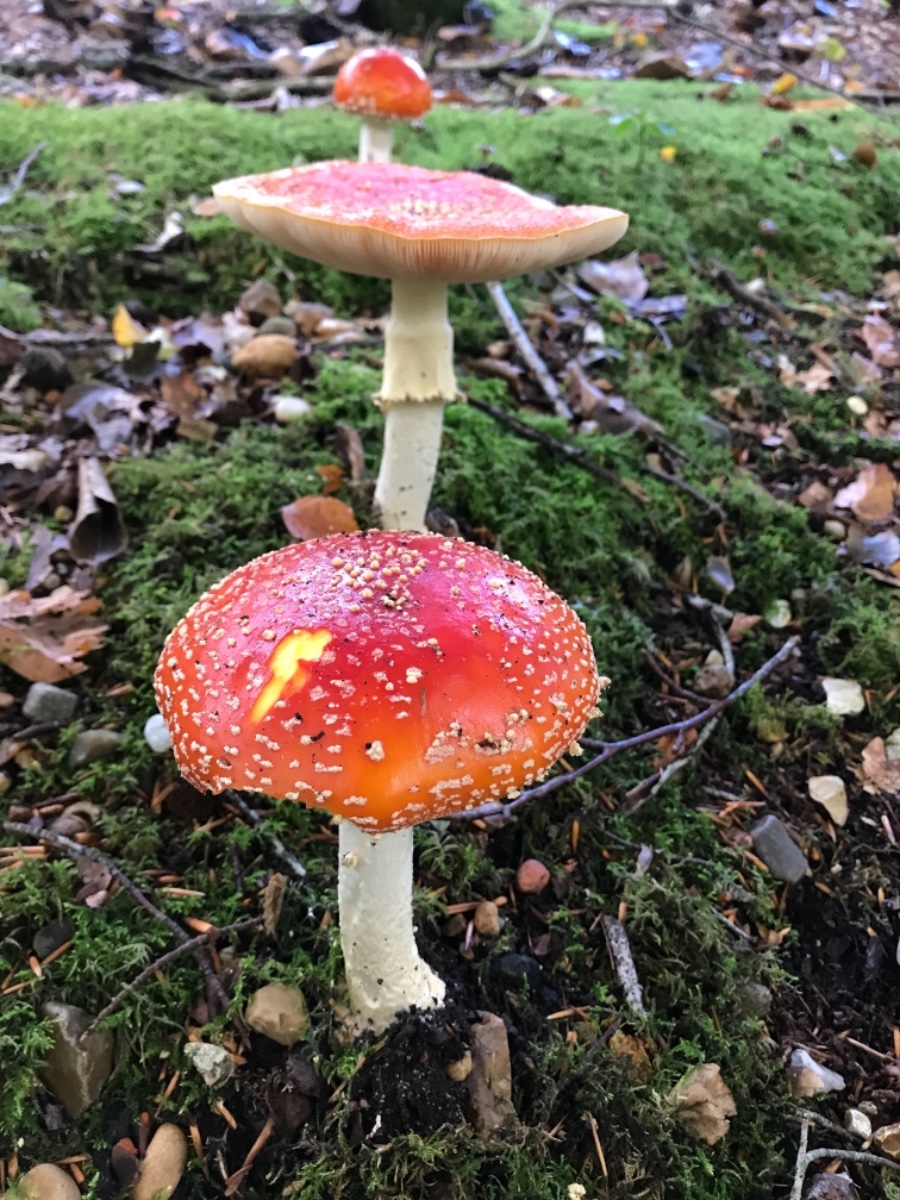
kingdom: Fungi
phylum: Basidiomycota
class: Agaricomycetes
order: Agaricales
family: Amanitaceae
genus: Amanita
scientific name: Amanita muscaria
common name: rød fluesvamp
